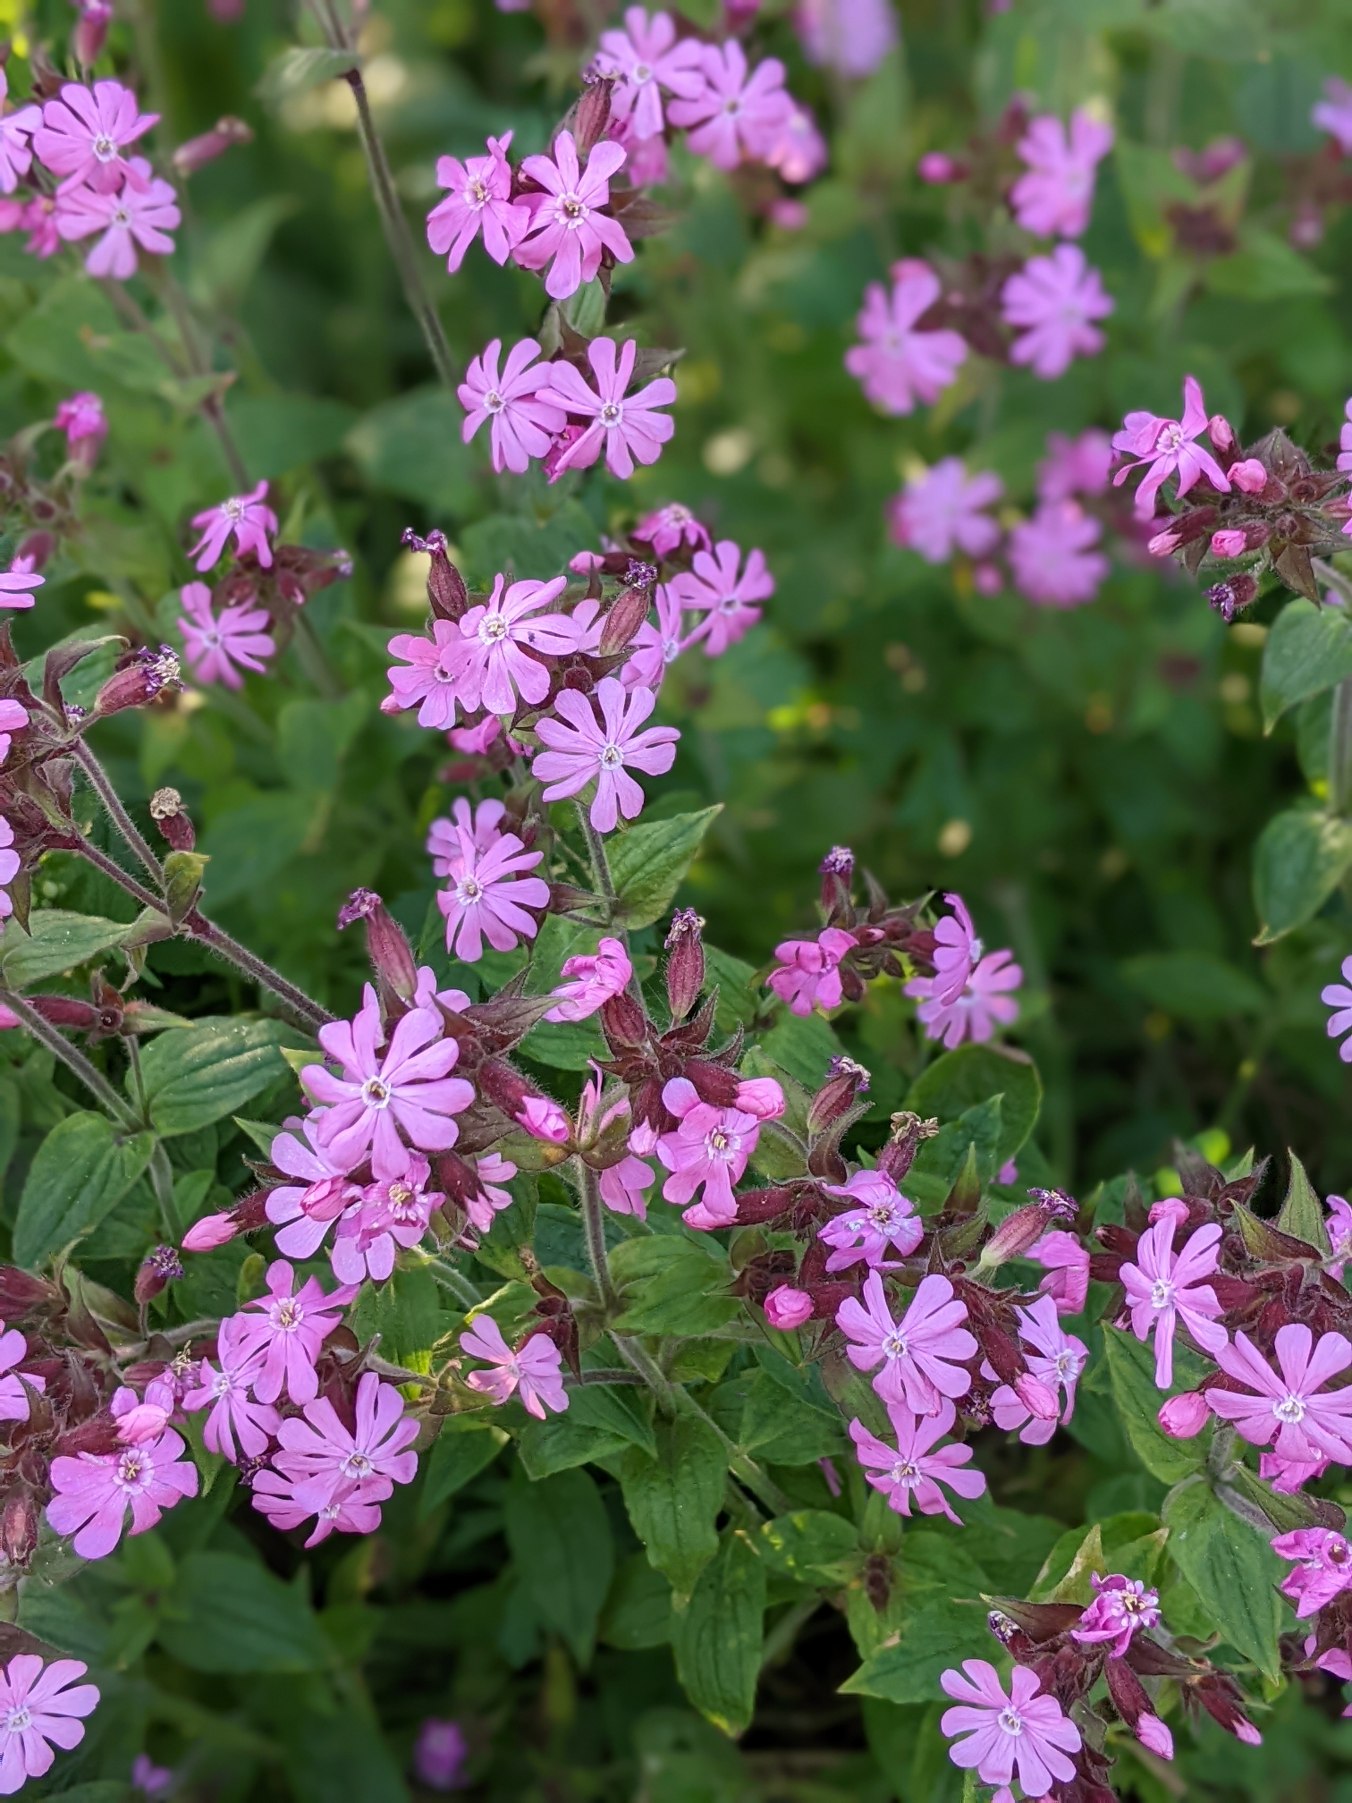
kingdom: Plantae
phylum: Tracheophyta
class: Magnoliopsida
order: Caryophyllales
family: Caryophyllaceae
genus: Silene
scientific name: Silene dioica
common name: Dagpragtstjerne
